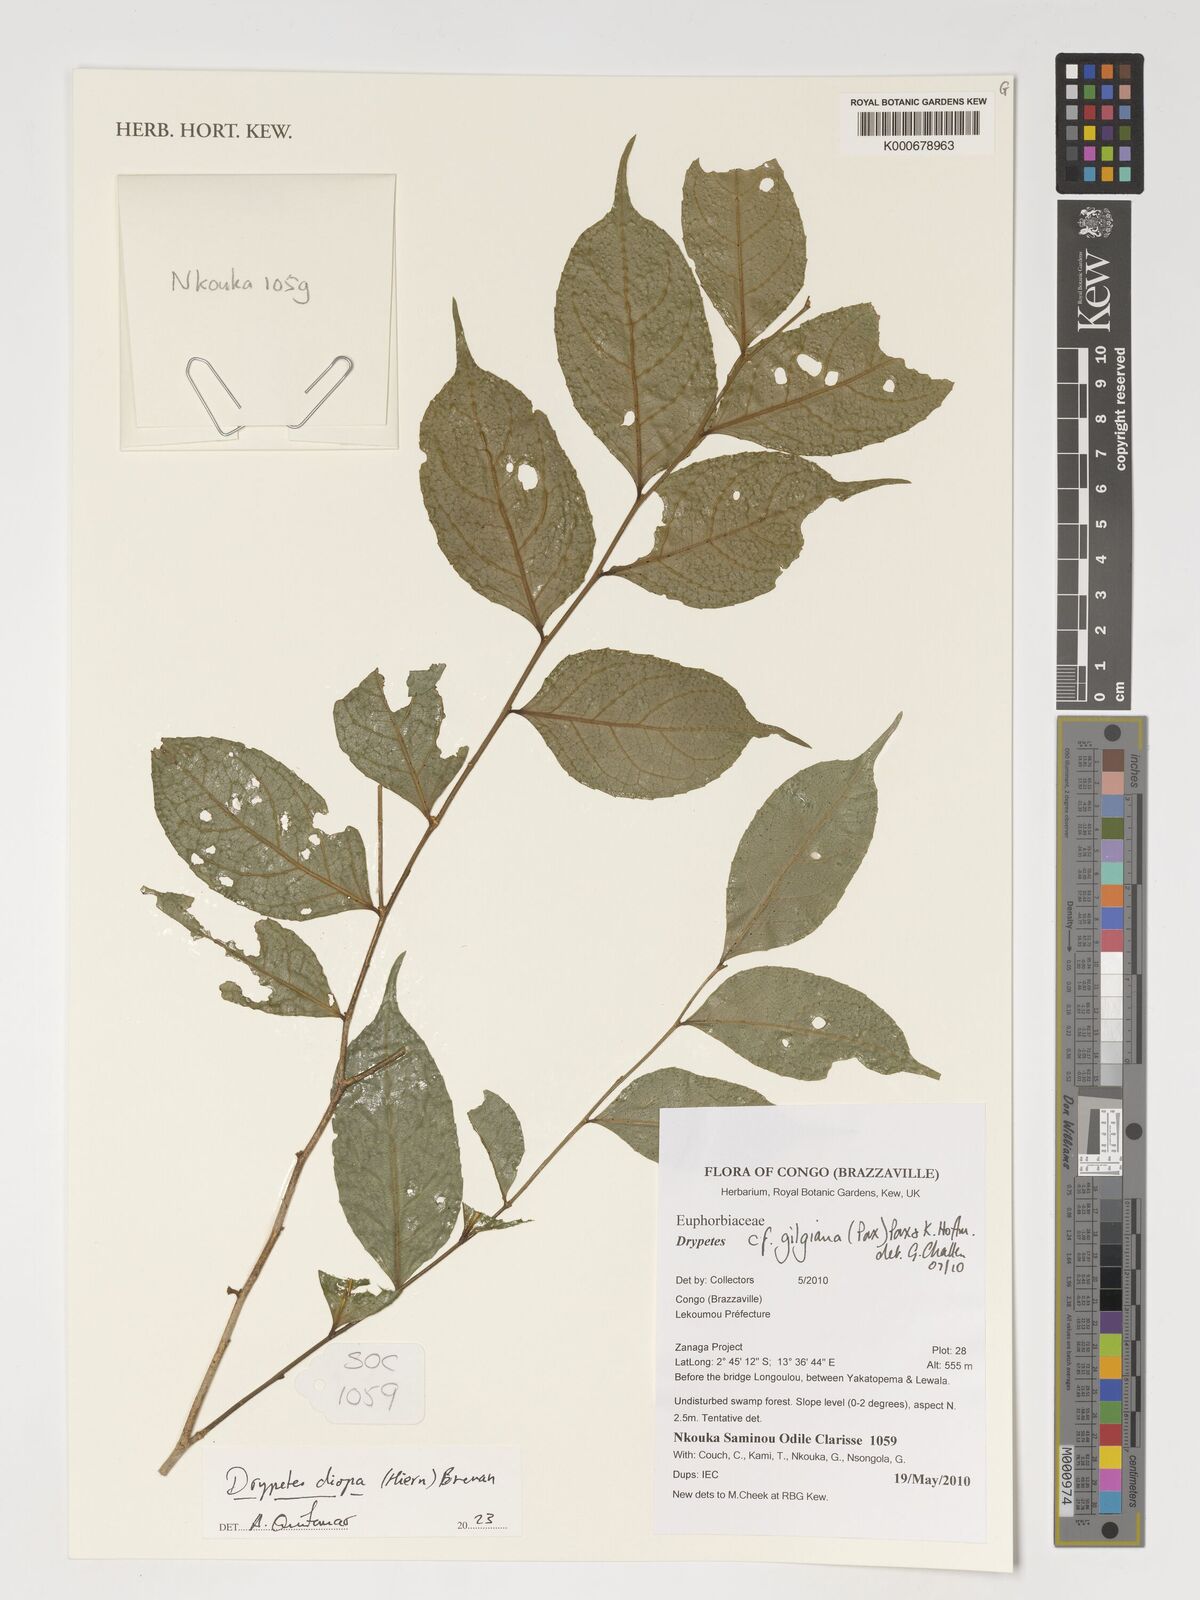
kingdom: Plantae
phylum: Tracheophyta
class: Magnoliopsida
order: Malpighiales
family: Putranjivaceae
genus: Drypetes
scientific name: Drypetes diopa
